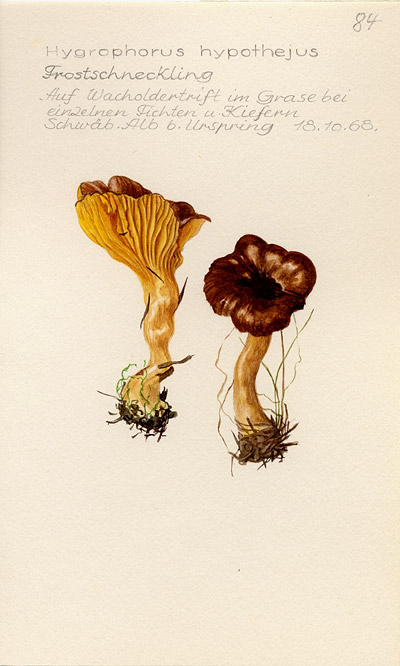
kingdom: Fungi
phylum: Basidiomycota
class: Agaricomycetes
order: Agaricales
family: Hygrophoraceae
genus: Hygrophorus
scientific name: Hygrophorus hypothejus
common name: Herald of winter
